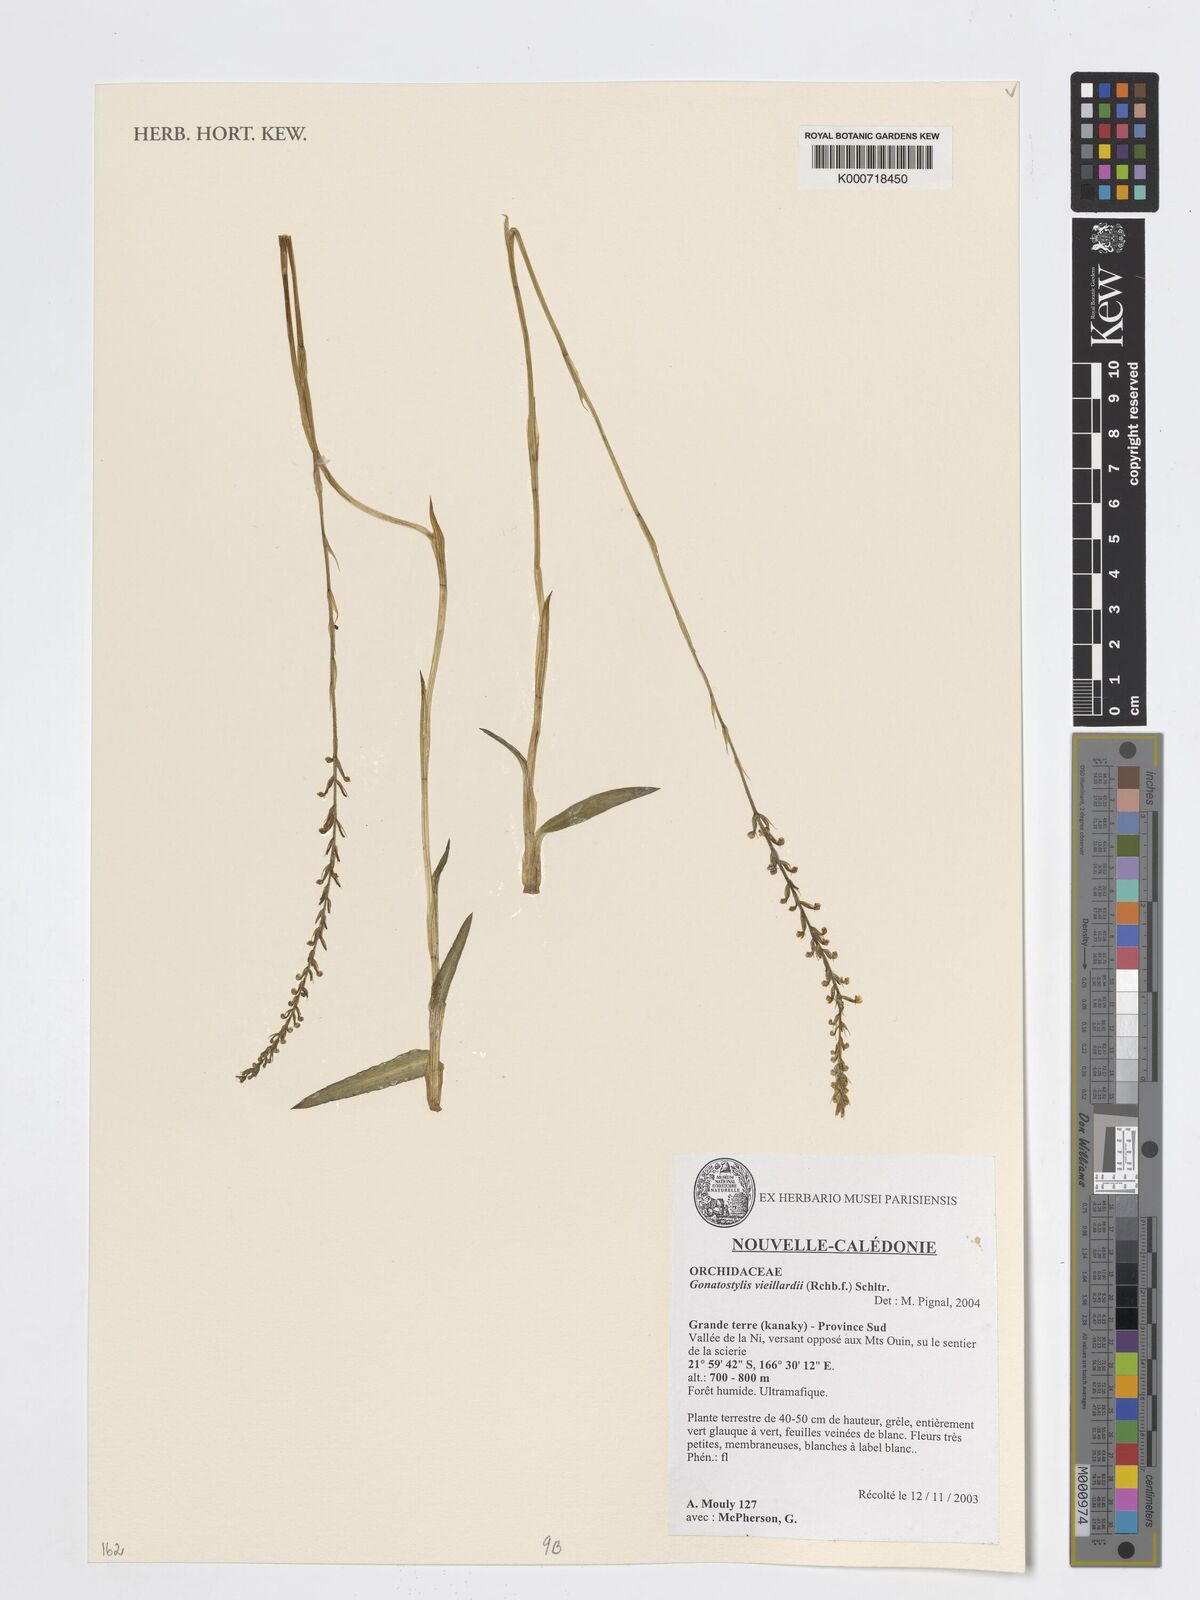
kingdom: Plantae
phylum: Tracheophyta
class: Liliopsida
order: Asparagales
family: Orchidaceae
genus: Gonatostylis
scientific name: Gonatostylis vieillardii
